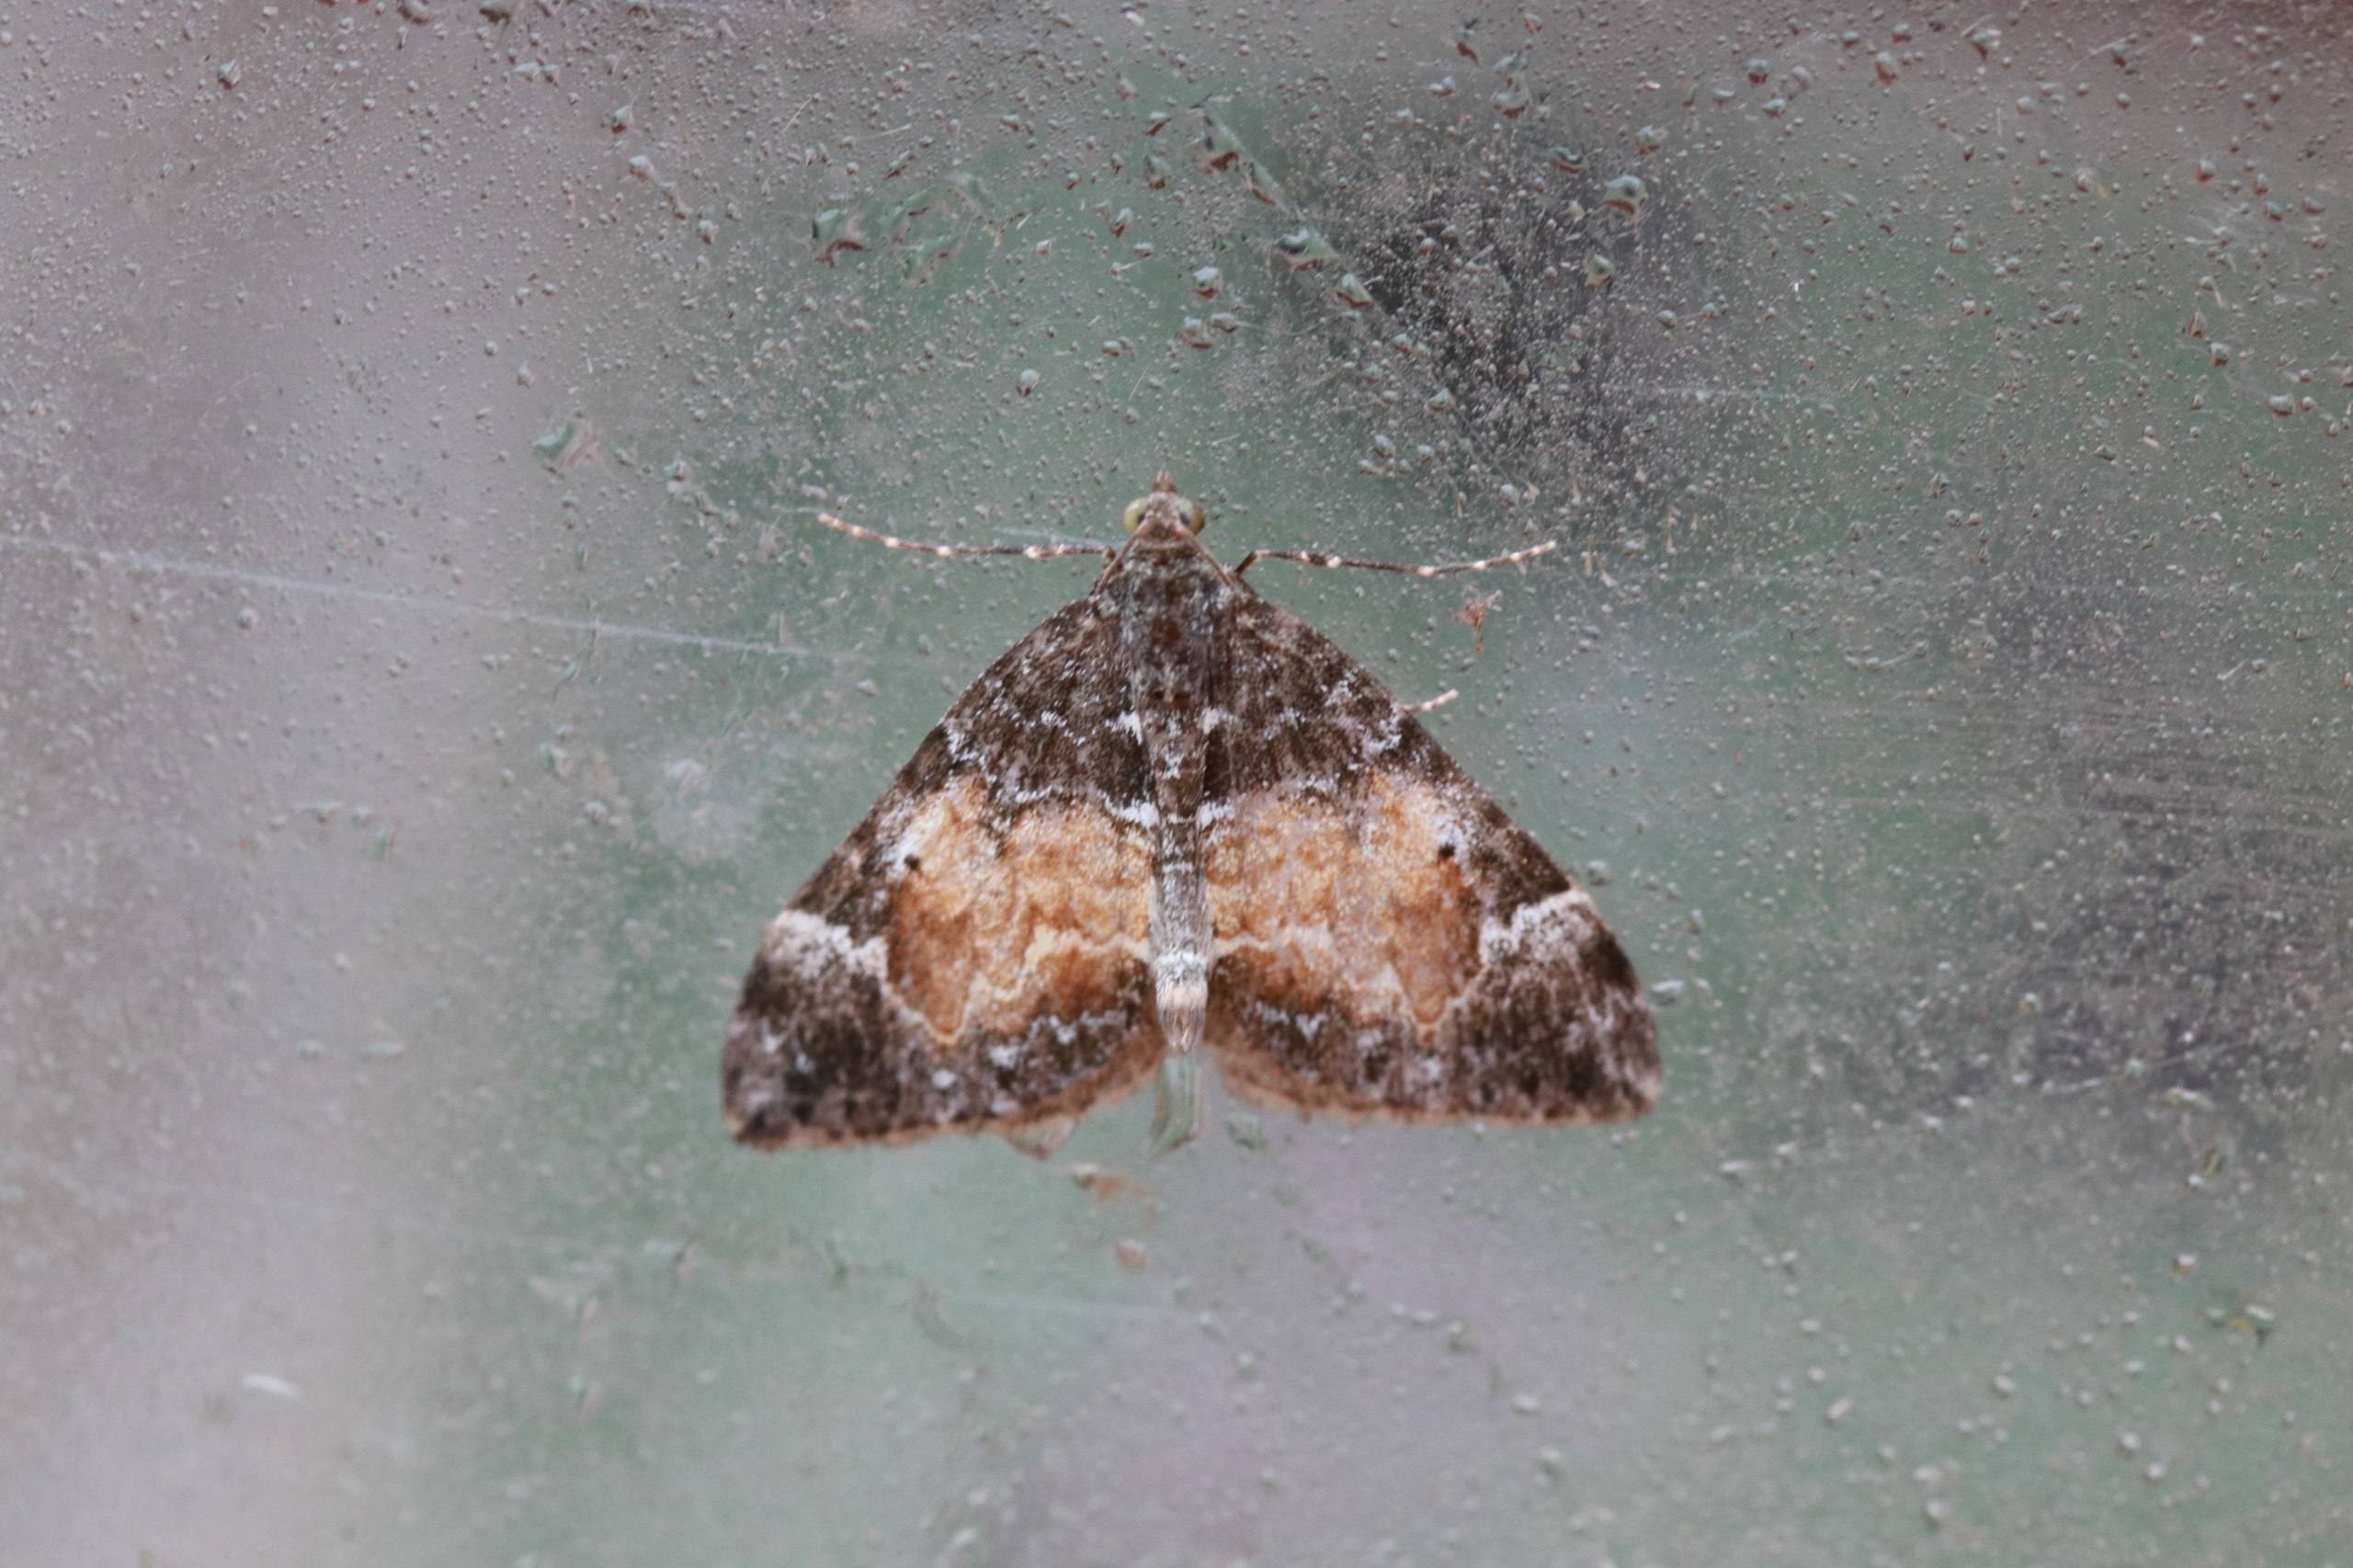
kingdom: Animalia
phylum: Arthropoda
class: Insecta
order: Lepidoptera
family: Geometridae
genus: Dysstroma
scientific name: Dysstroma truncata
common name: Jordbær-bladmåler
